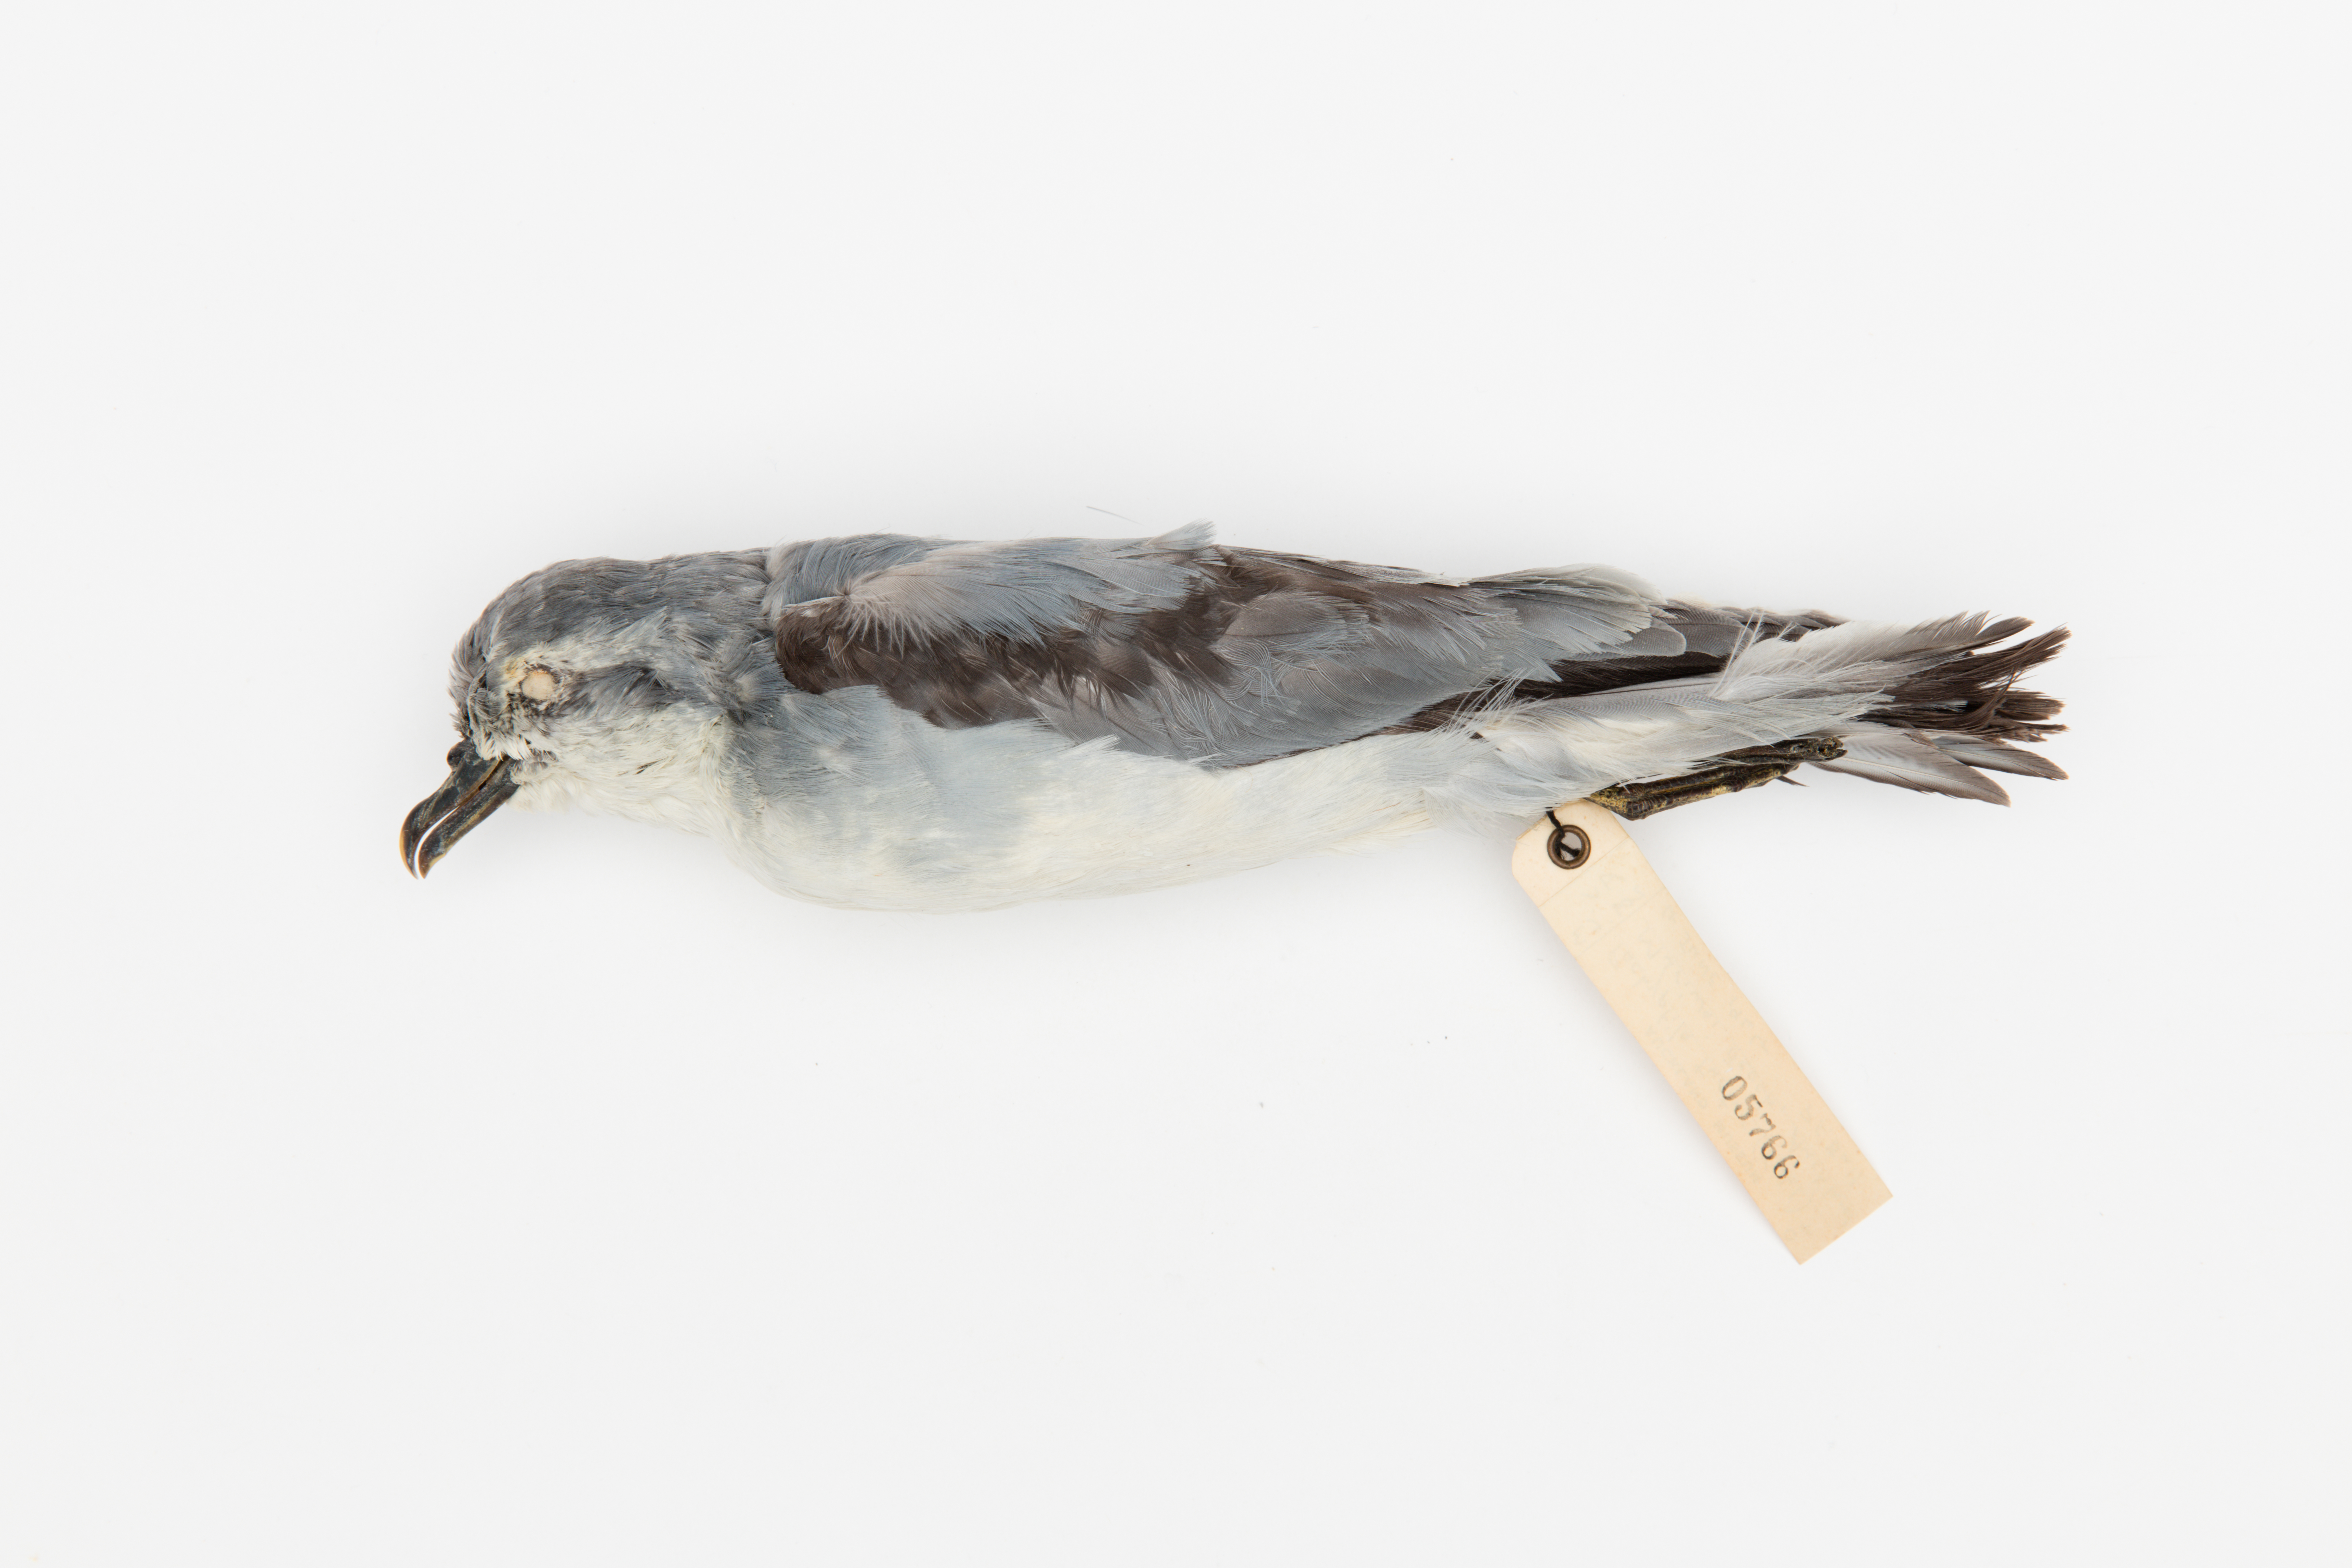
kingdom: Animalia
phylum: Chordata
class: Aves
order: Procellariiformes
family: Procellariidae
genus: Pachyptila
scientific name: Pachyptila turtur
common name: Fairy prion
